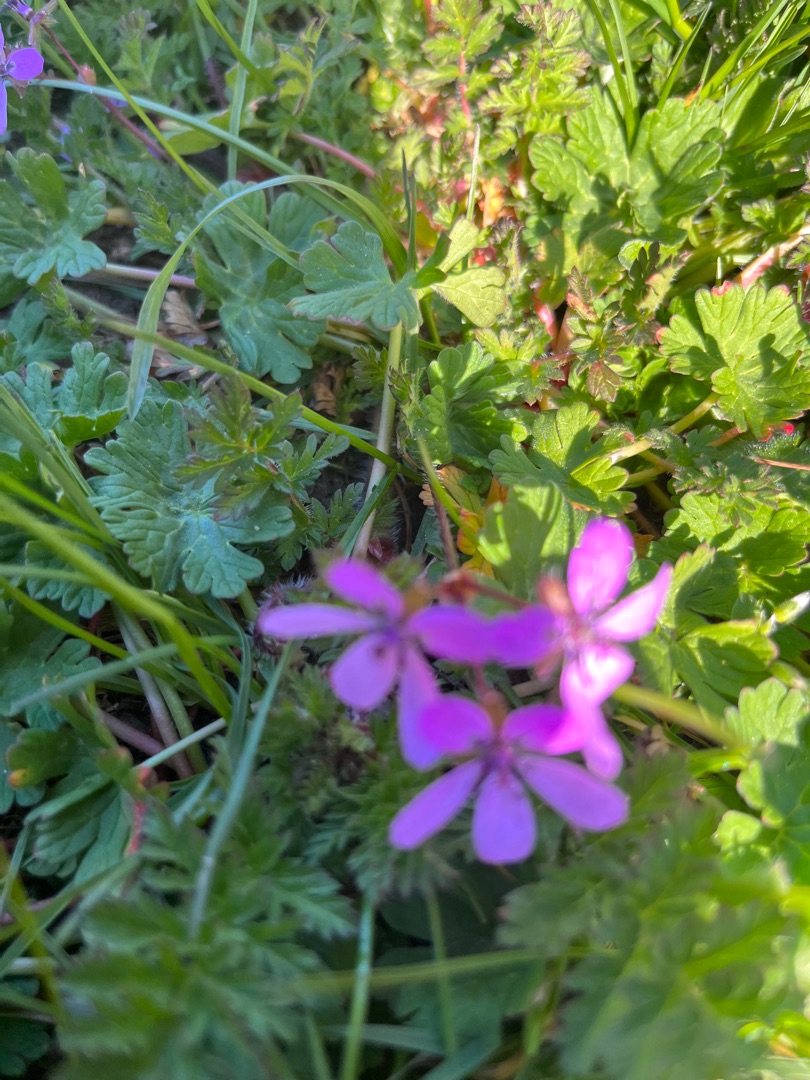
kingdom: Plantae
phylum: Tracheophyta
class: Magnoliopsida
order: Geraniales
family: Geraniaceae
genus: Erodium
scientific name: Erodium cicutarium
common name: Hejrenæb
